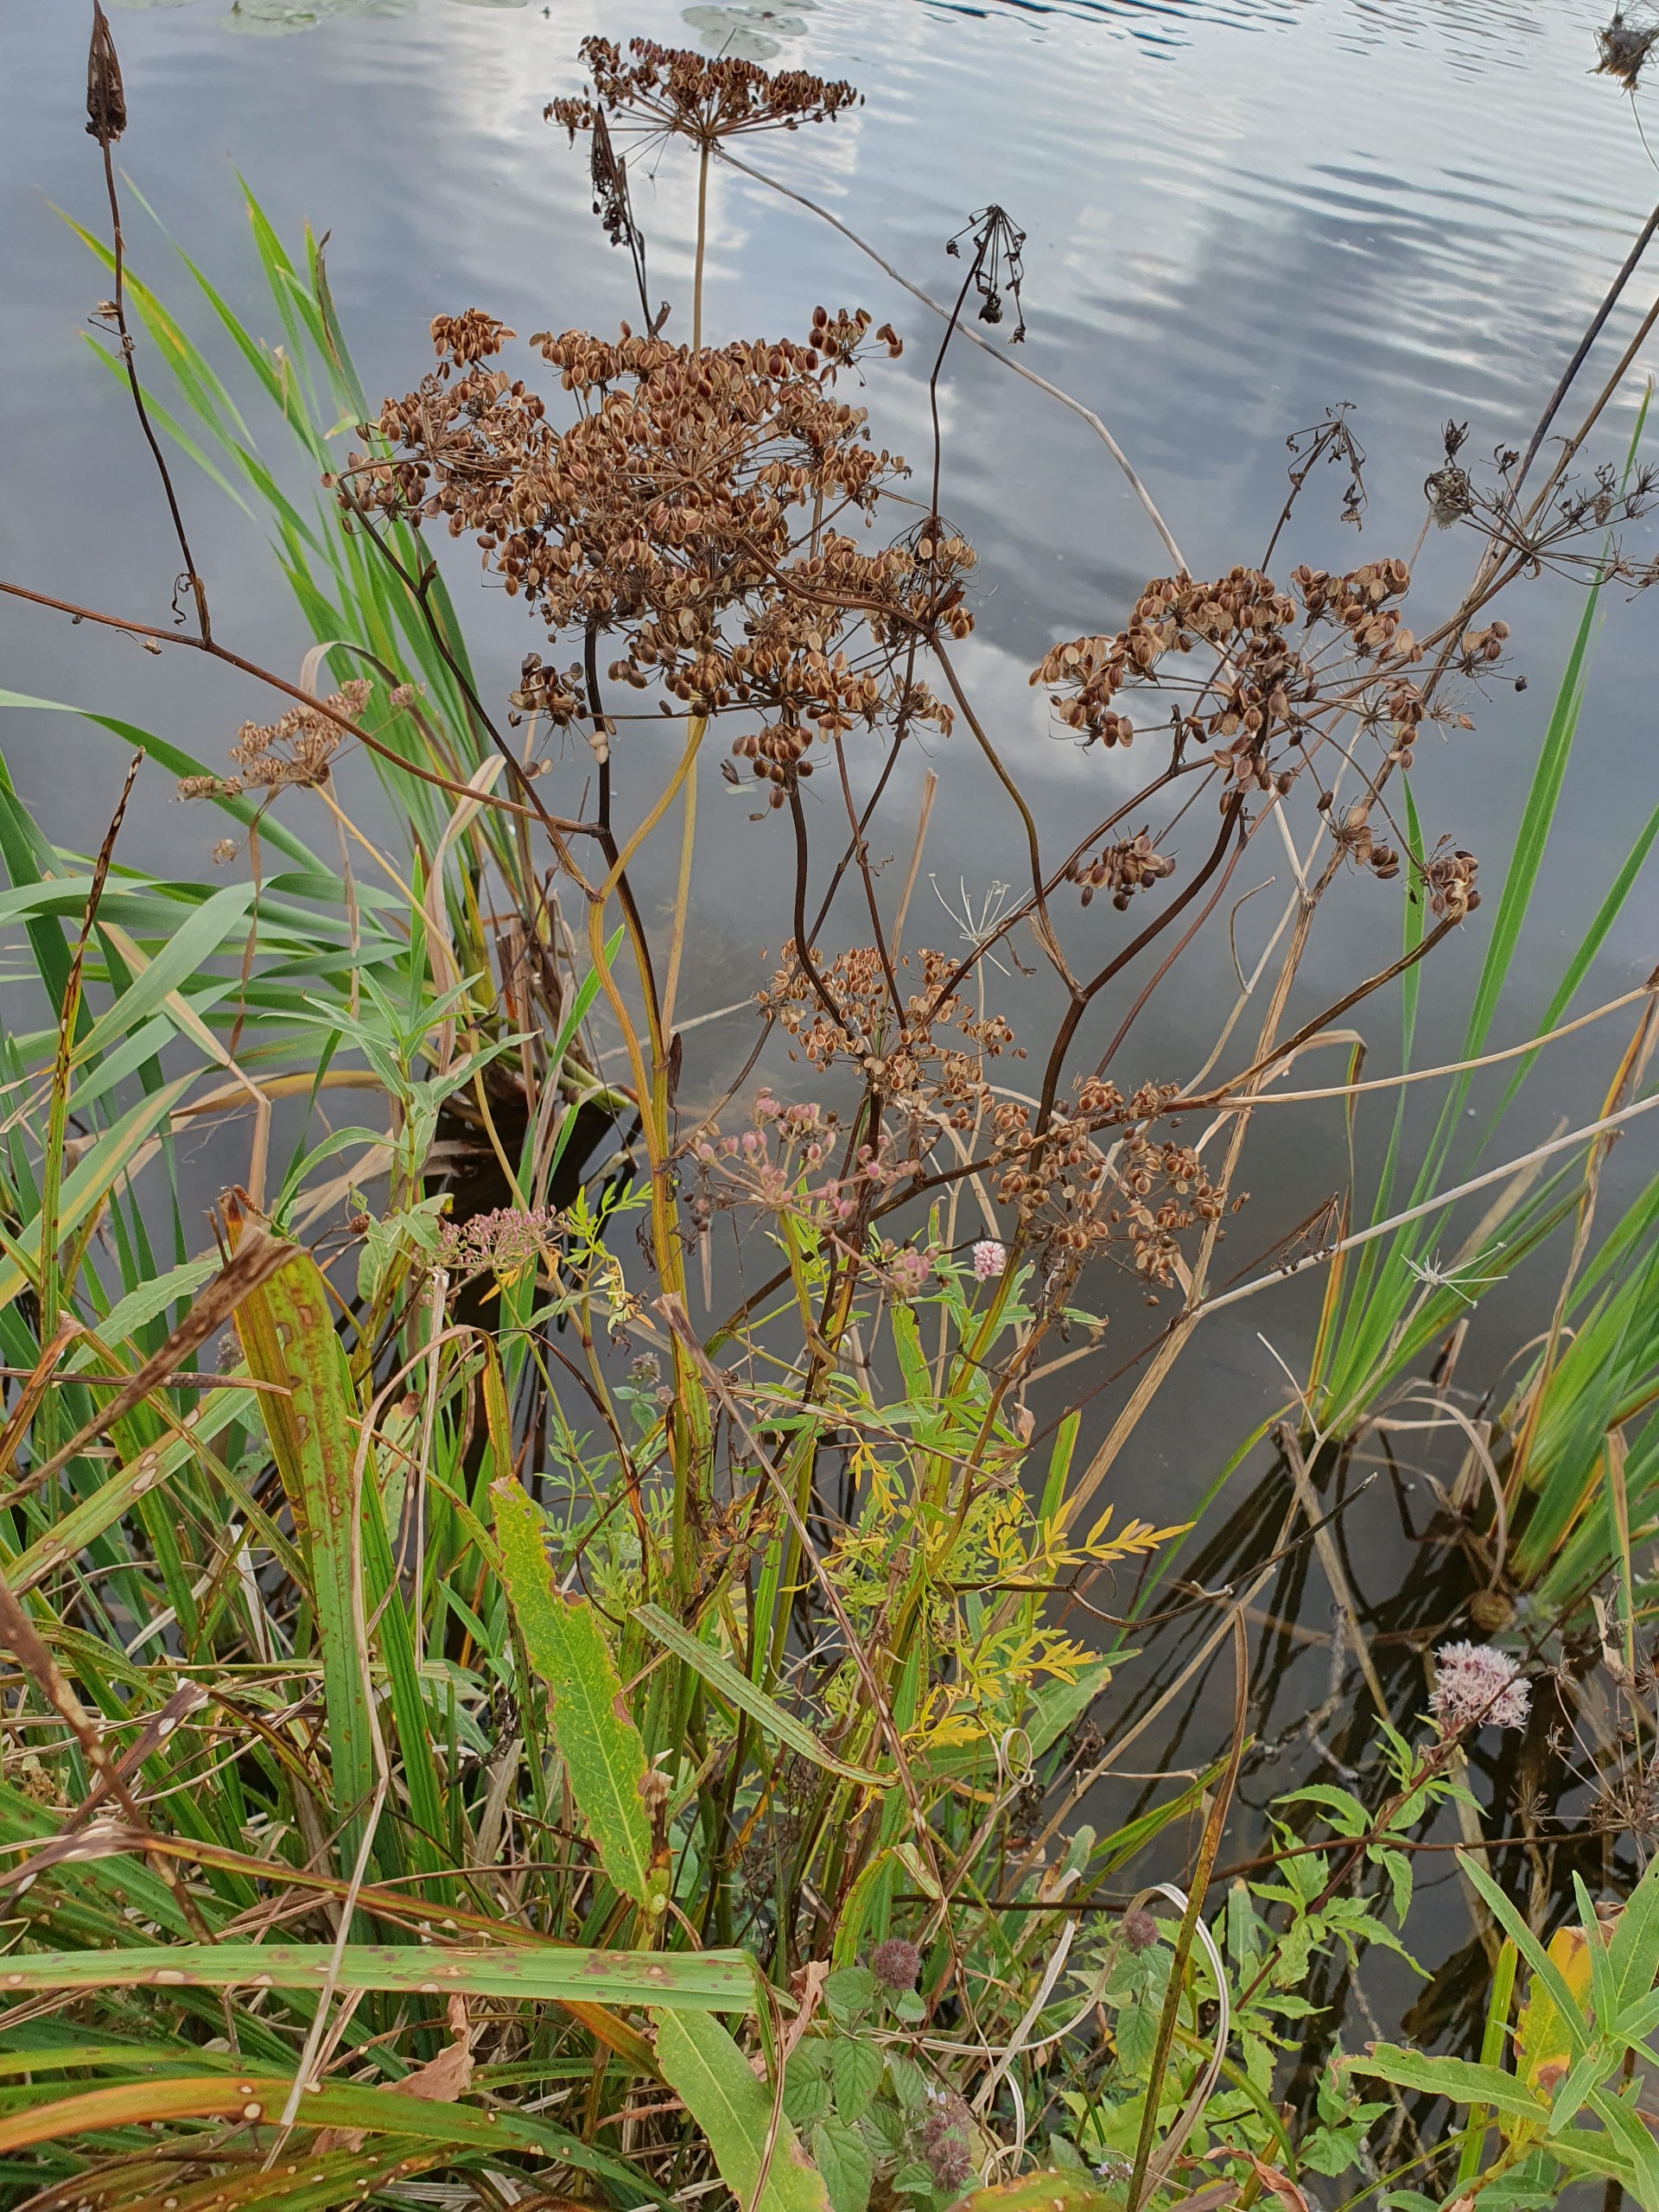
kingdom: Plantae
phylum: Tracheophyta
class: Magnoliopsida
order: Apiales
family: Apiaceae
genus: Thysselinum
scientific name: Thysselinum palustre
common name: Kær-svovlrod
